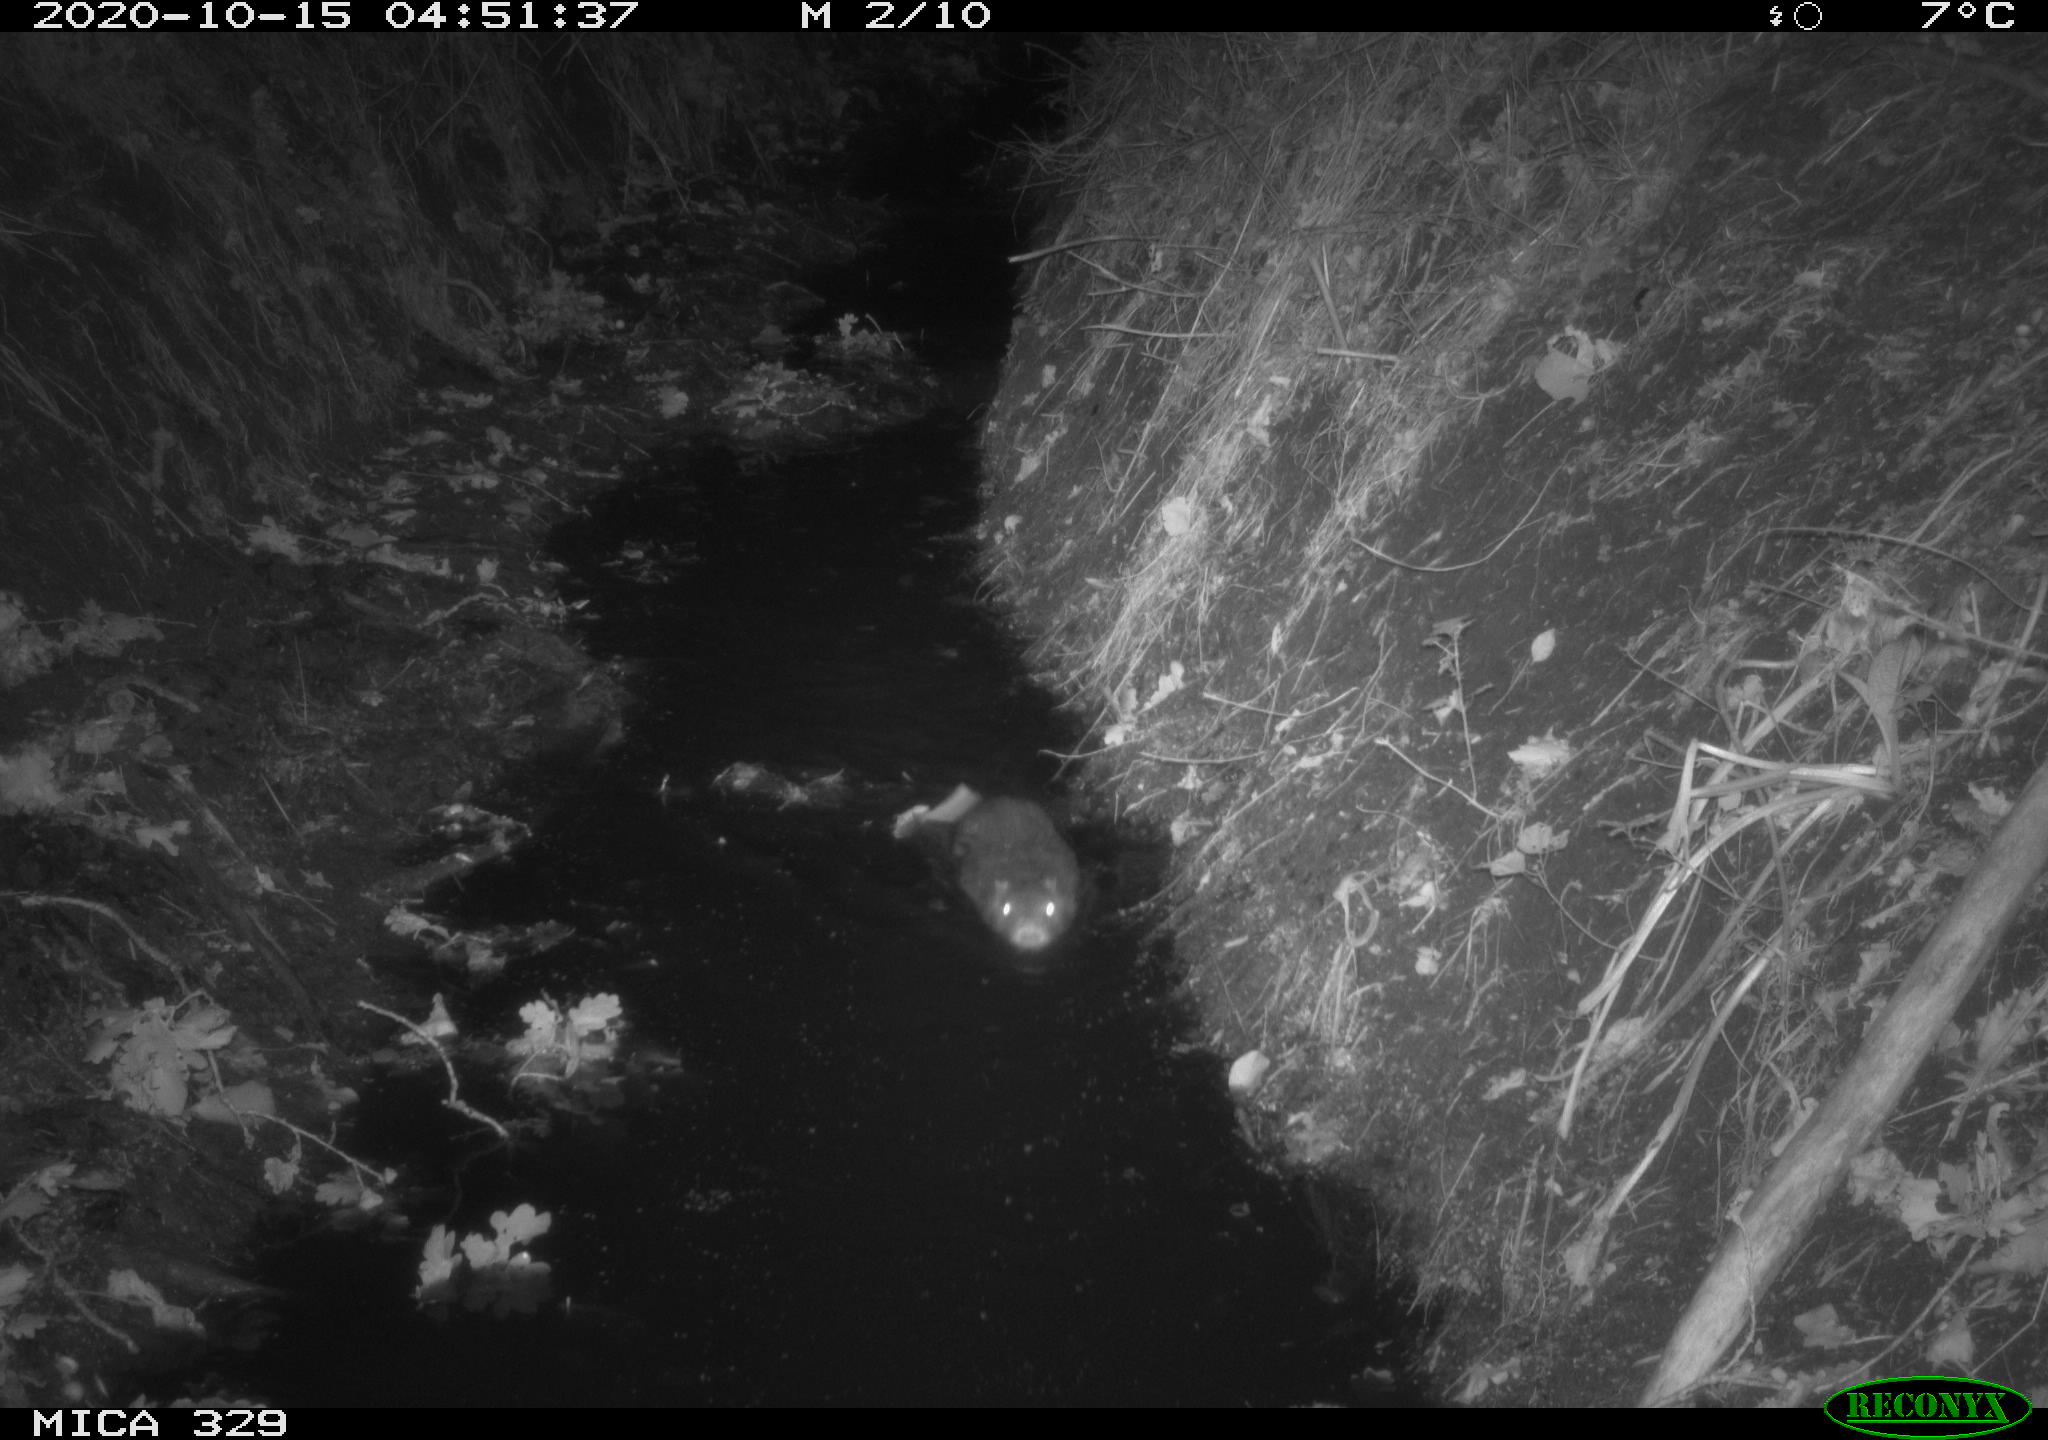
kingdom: Animalia
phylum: Chordata
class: Mammalia
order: Rodentia
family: Myocastoridae
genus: Myocastor
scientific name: Myocastor coypus
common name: Coypu
